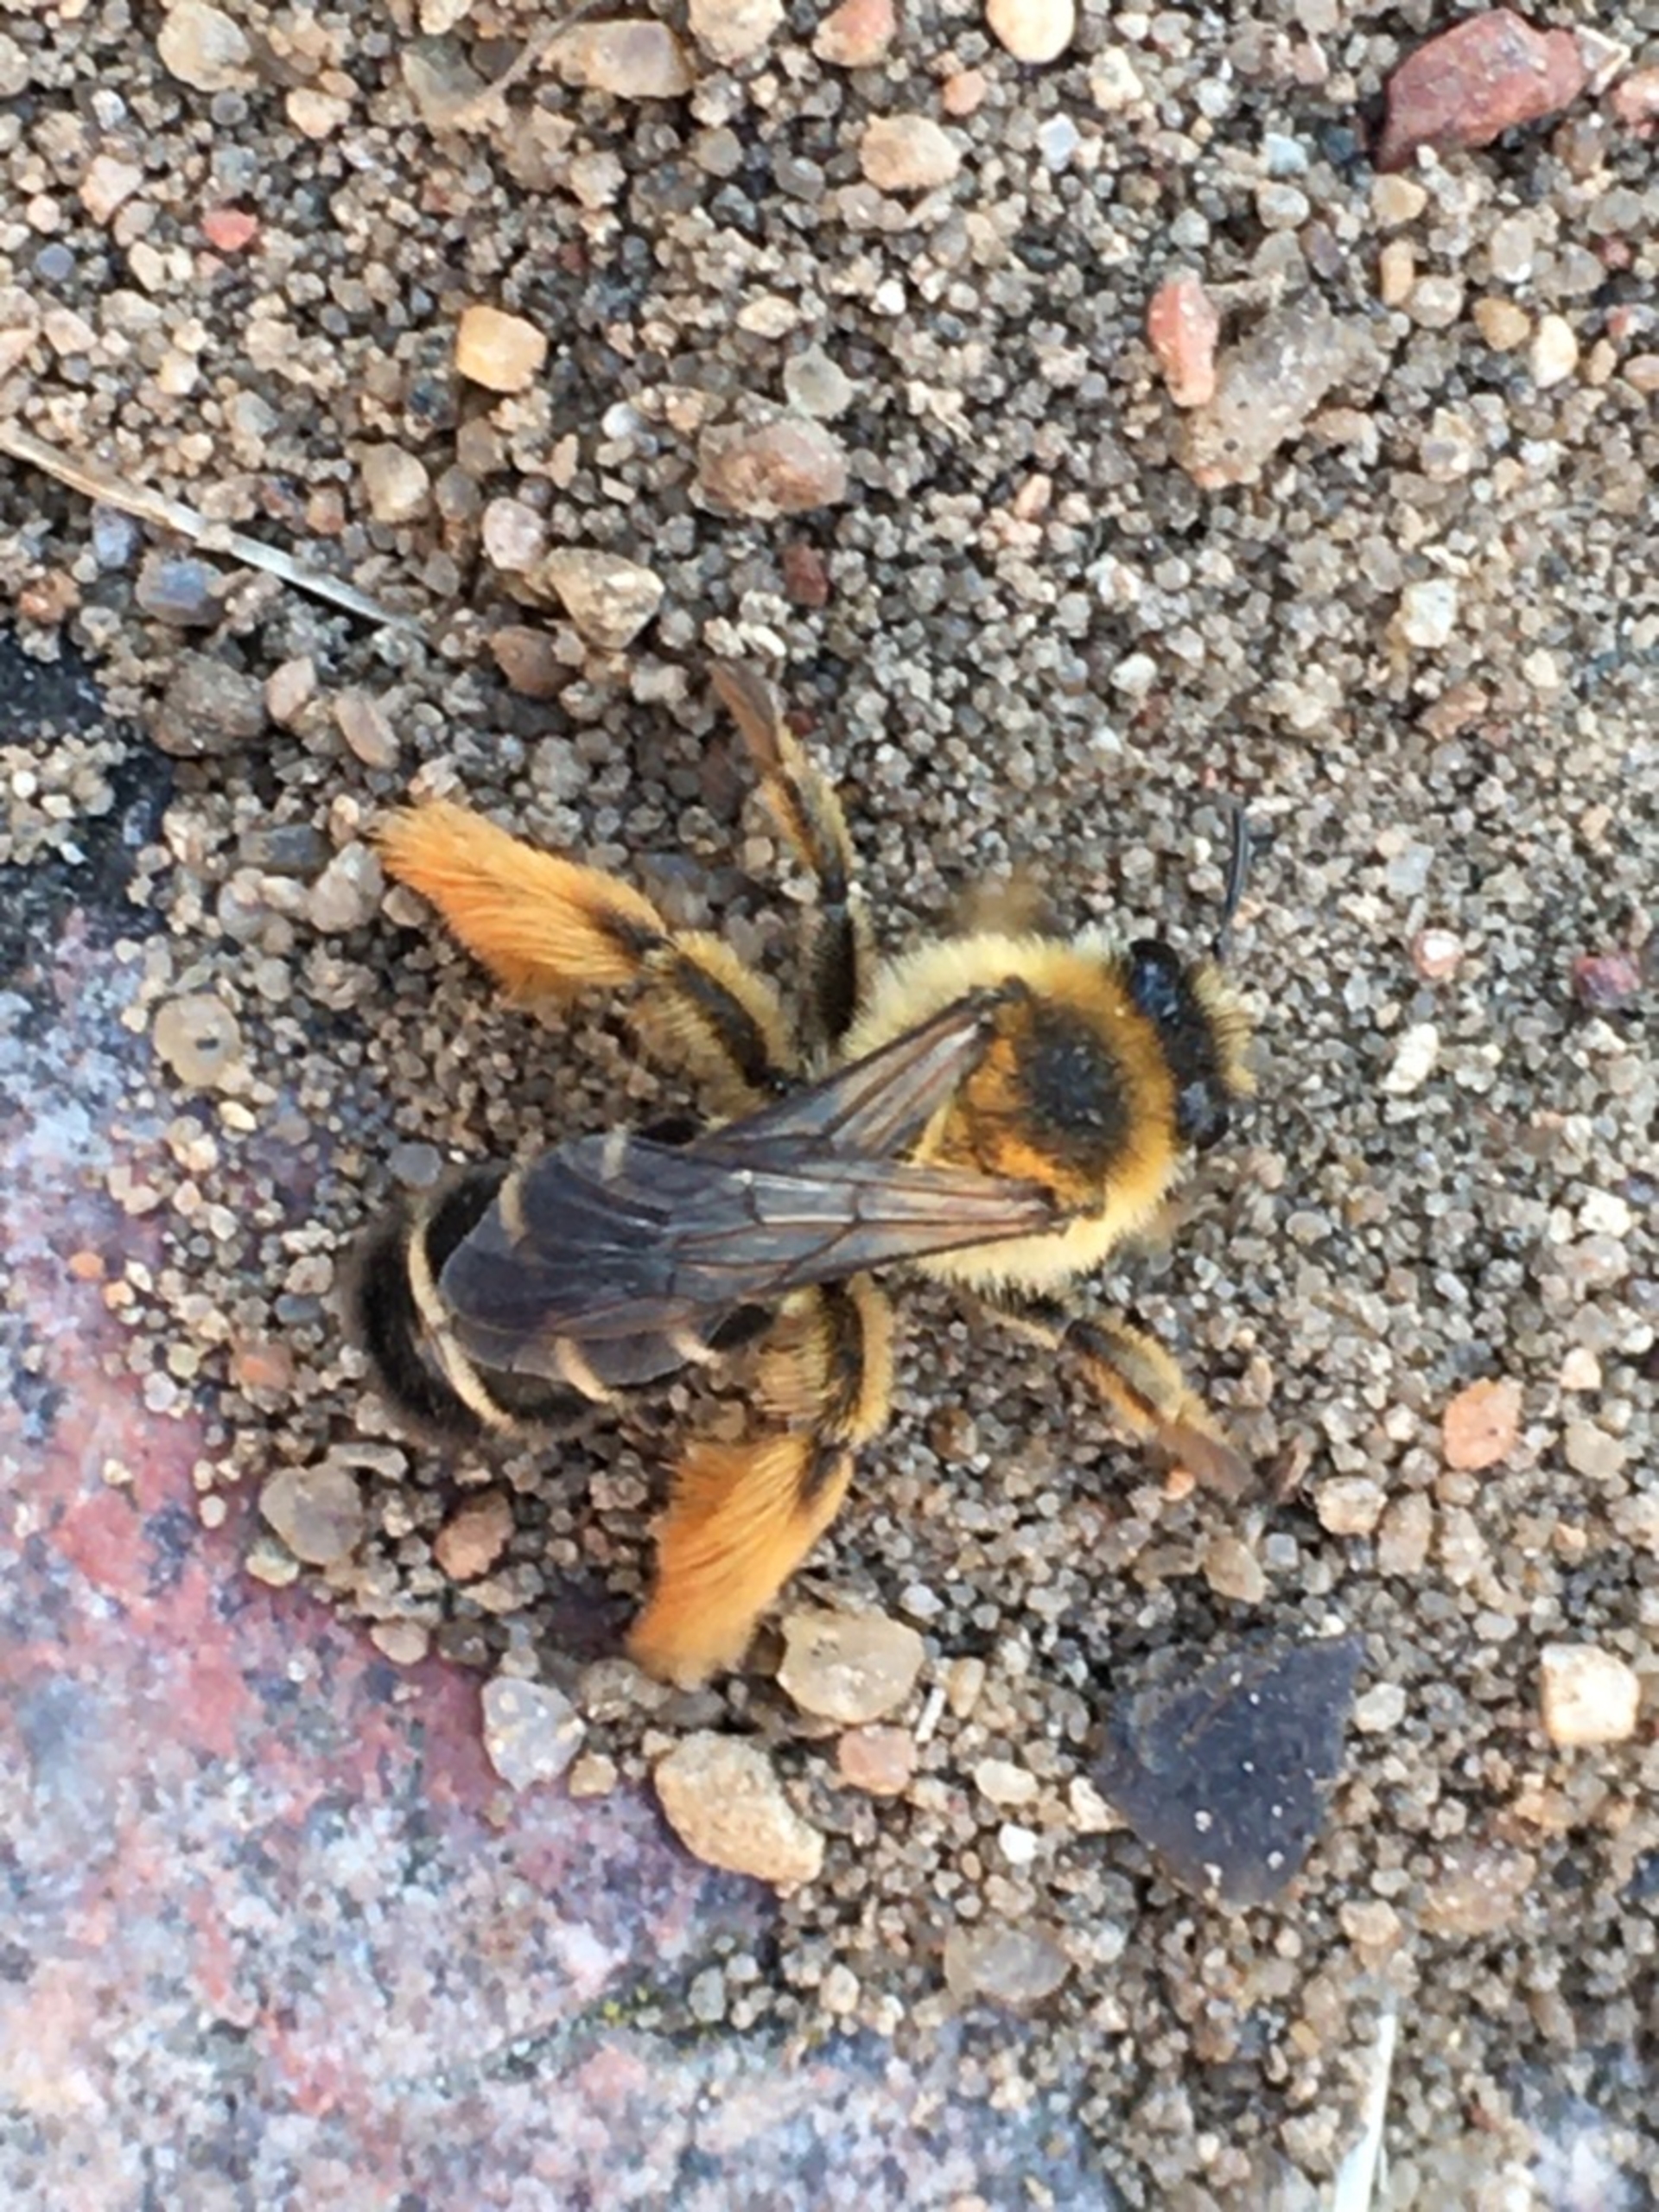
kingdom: Animalia
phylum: Arthropoda
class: Insecta
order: Hymenoptera
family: Melittidae
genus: Dasypoda
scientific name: Dasypoda hirtipes
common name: Pragtbuksebi
